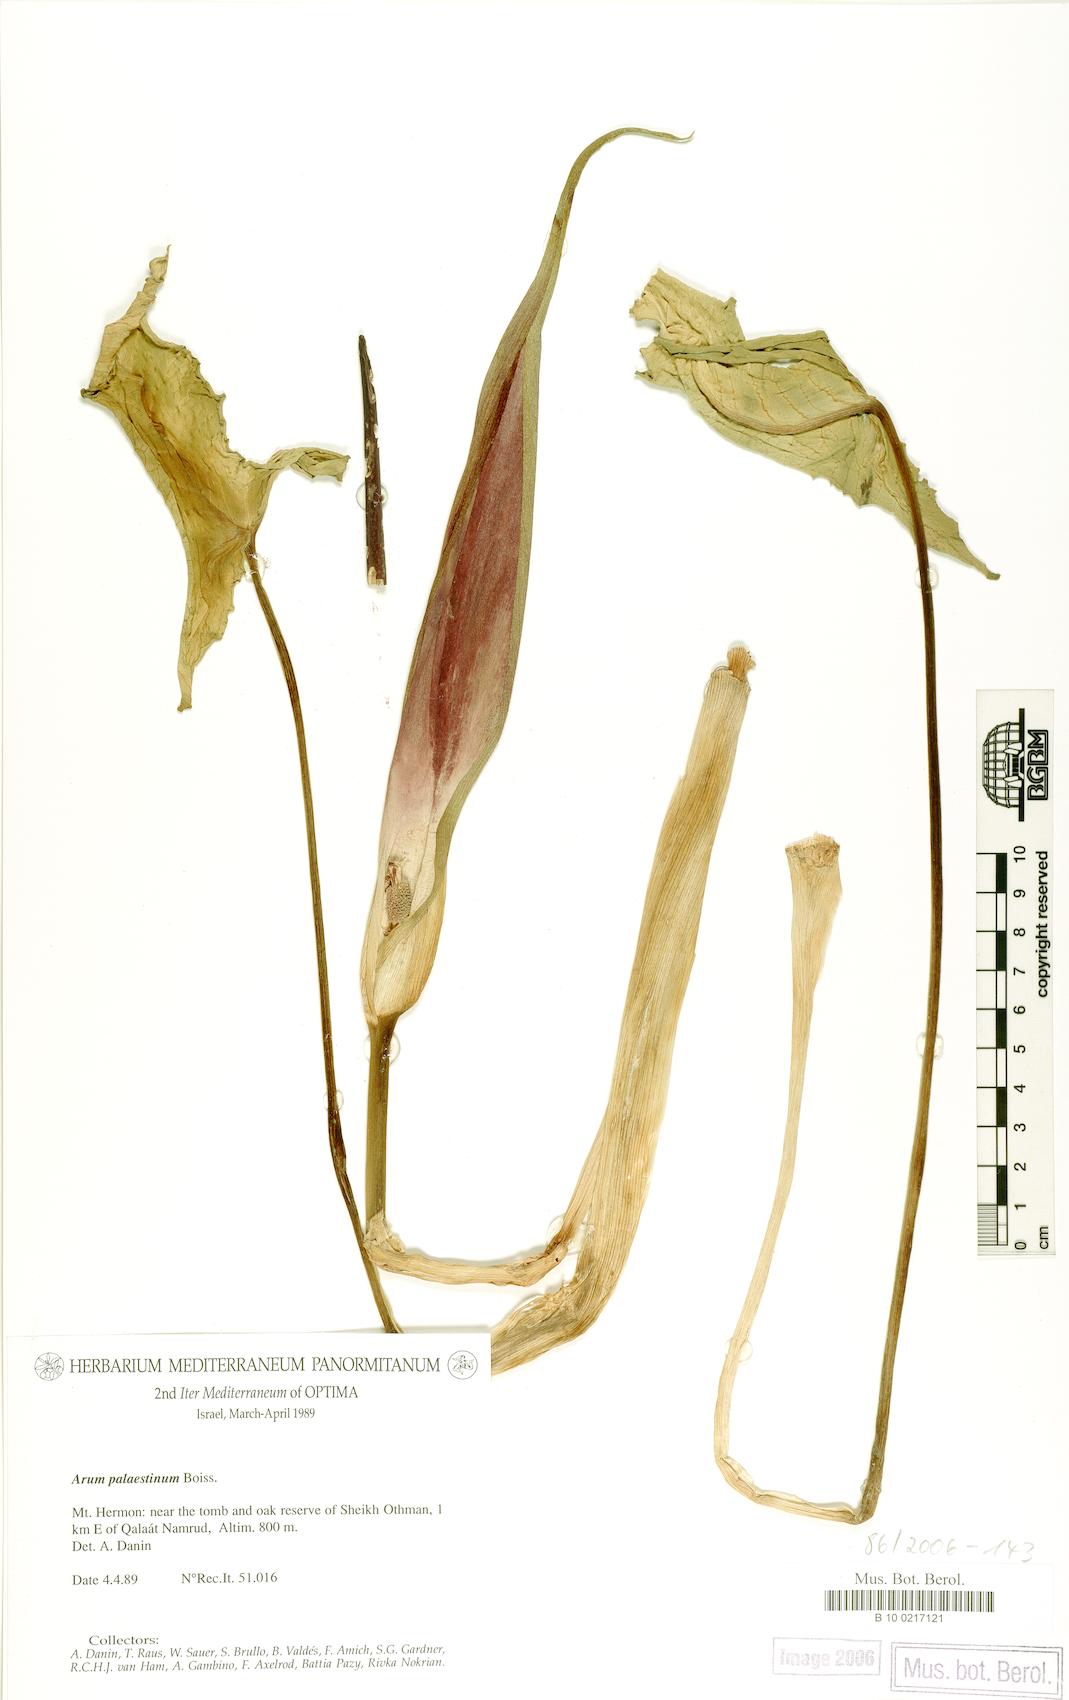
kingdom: Plantae
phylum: Tracheophyta
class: Liliopsida
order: Alismatales
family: Araceae
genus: Arum
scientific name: Arum palaestinum
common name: Solomon's lily
